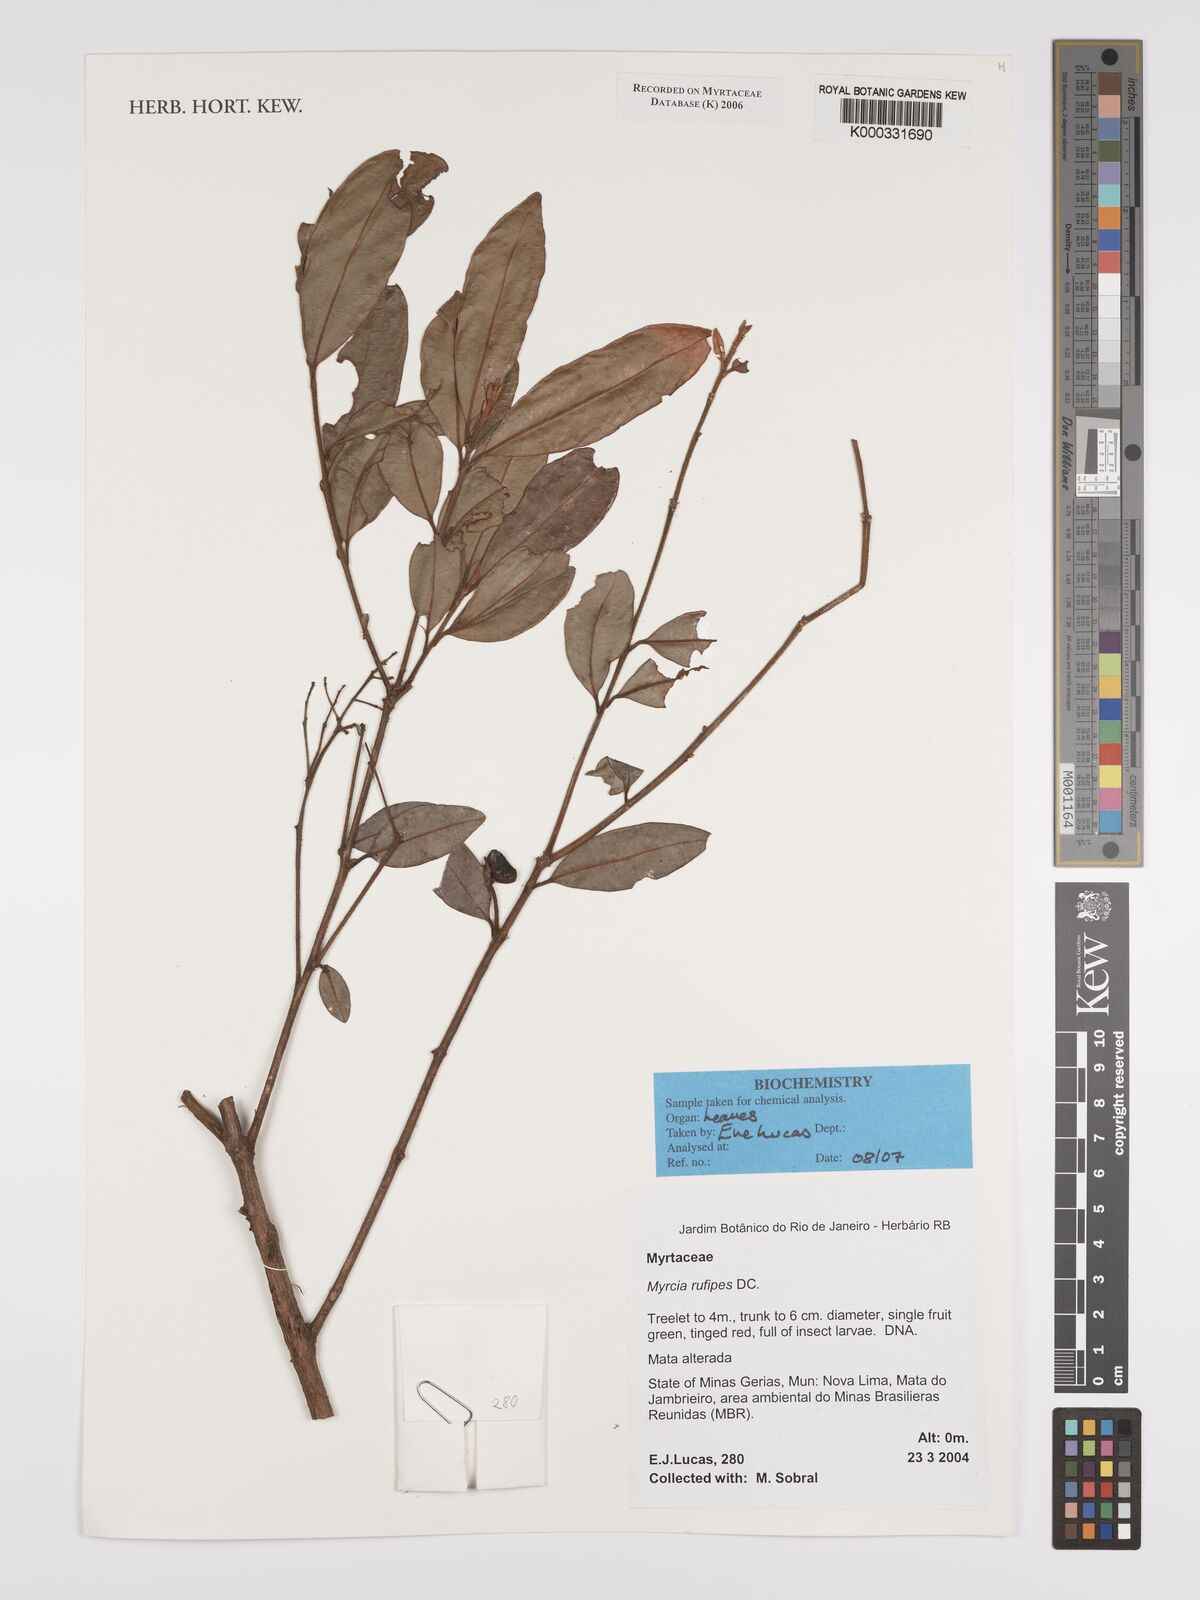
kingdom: Plantae
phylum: Tracheophyta
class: Magnoliopsida
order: Myrtales
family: Myrtaceae
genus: Myrcia
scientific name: Myrcia rufipes
